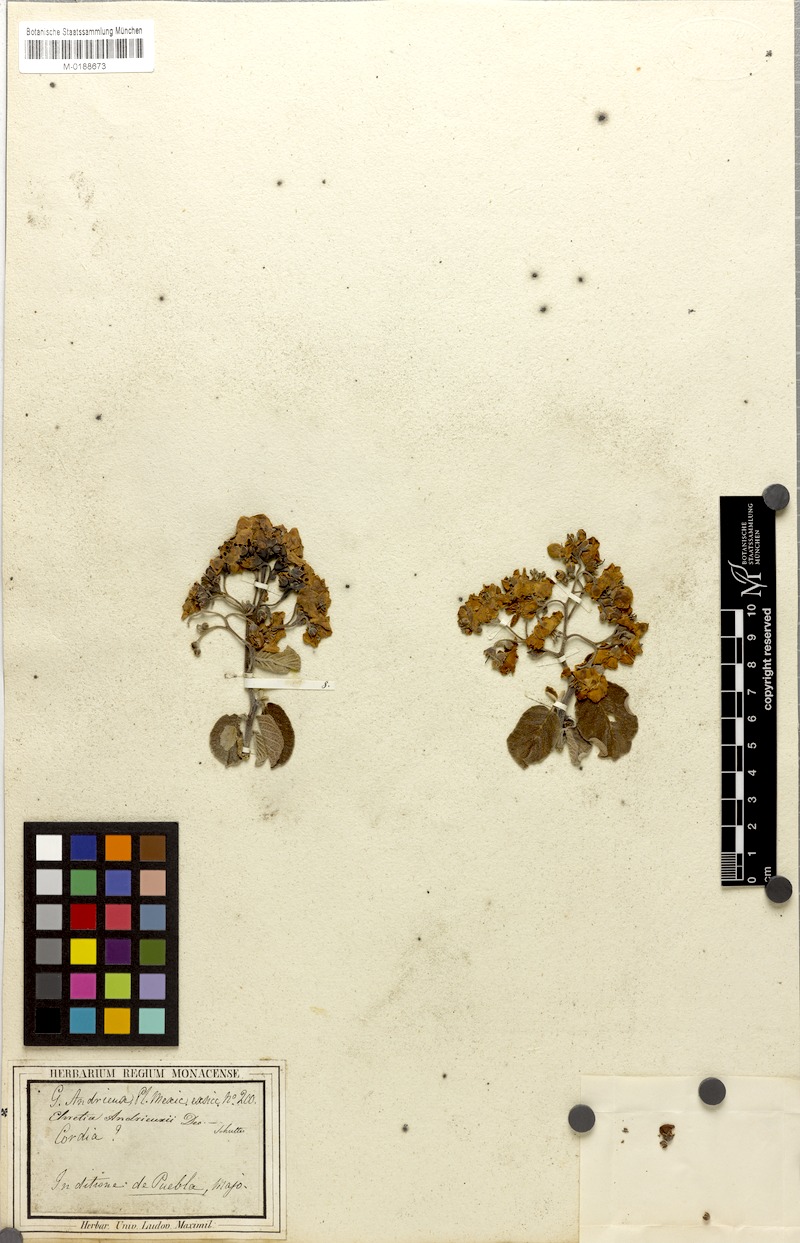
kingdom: Plantae
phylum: Tracheophyta
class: Magnoliopsida
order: Boraginales
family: Ehretiaceae
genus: Bourreria
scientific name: Bourreria andrieuxii
